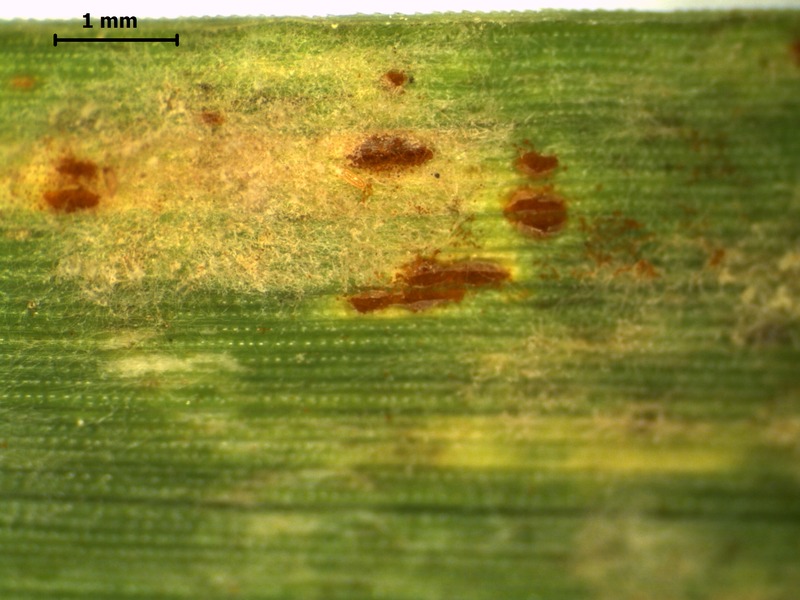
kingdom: Fungi
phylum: Basidiomycota
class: Pucciniomycetes
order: Pucciniales
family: Pucciniaceae
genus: Puccinia
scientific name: Puccinia recondita
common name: Brown rust of wheat
